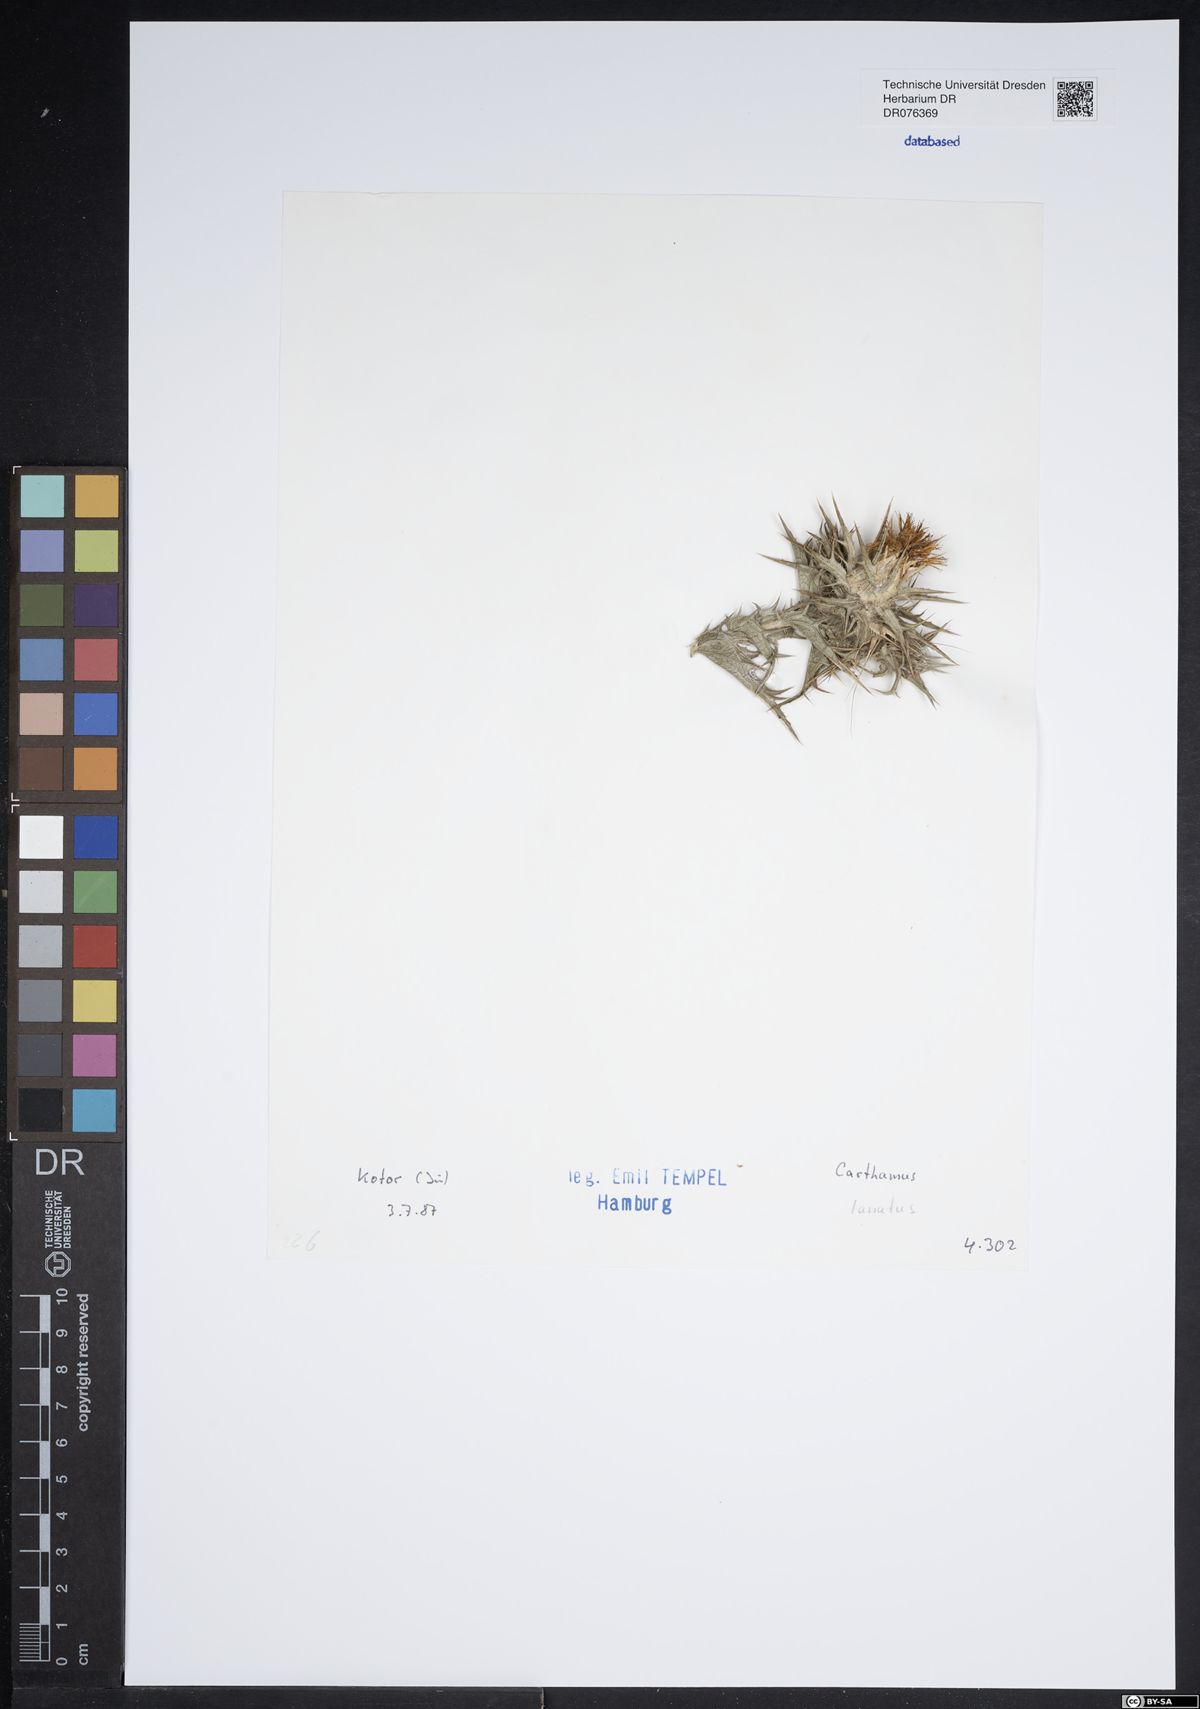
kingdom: Plantae
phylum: Tracheophyta
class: Magnoliopsida
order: Asterales
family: Asteraceae
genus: Carthamus
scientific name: Carthamus lanatus
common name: Downy safflower
